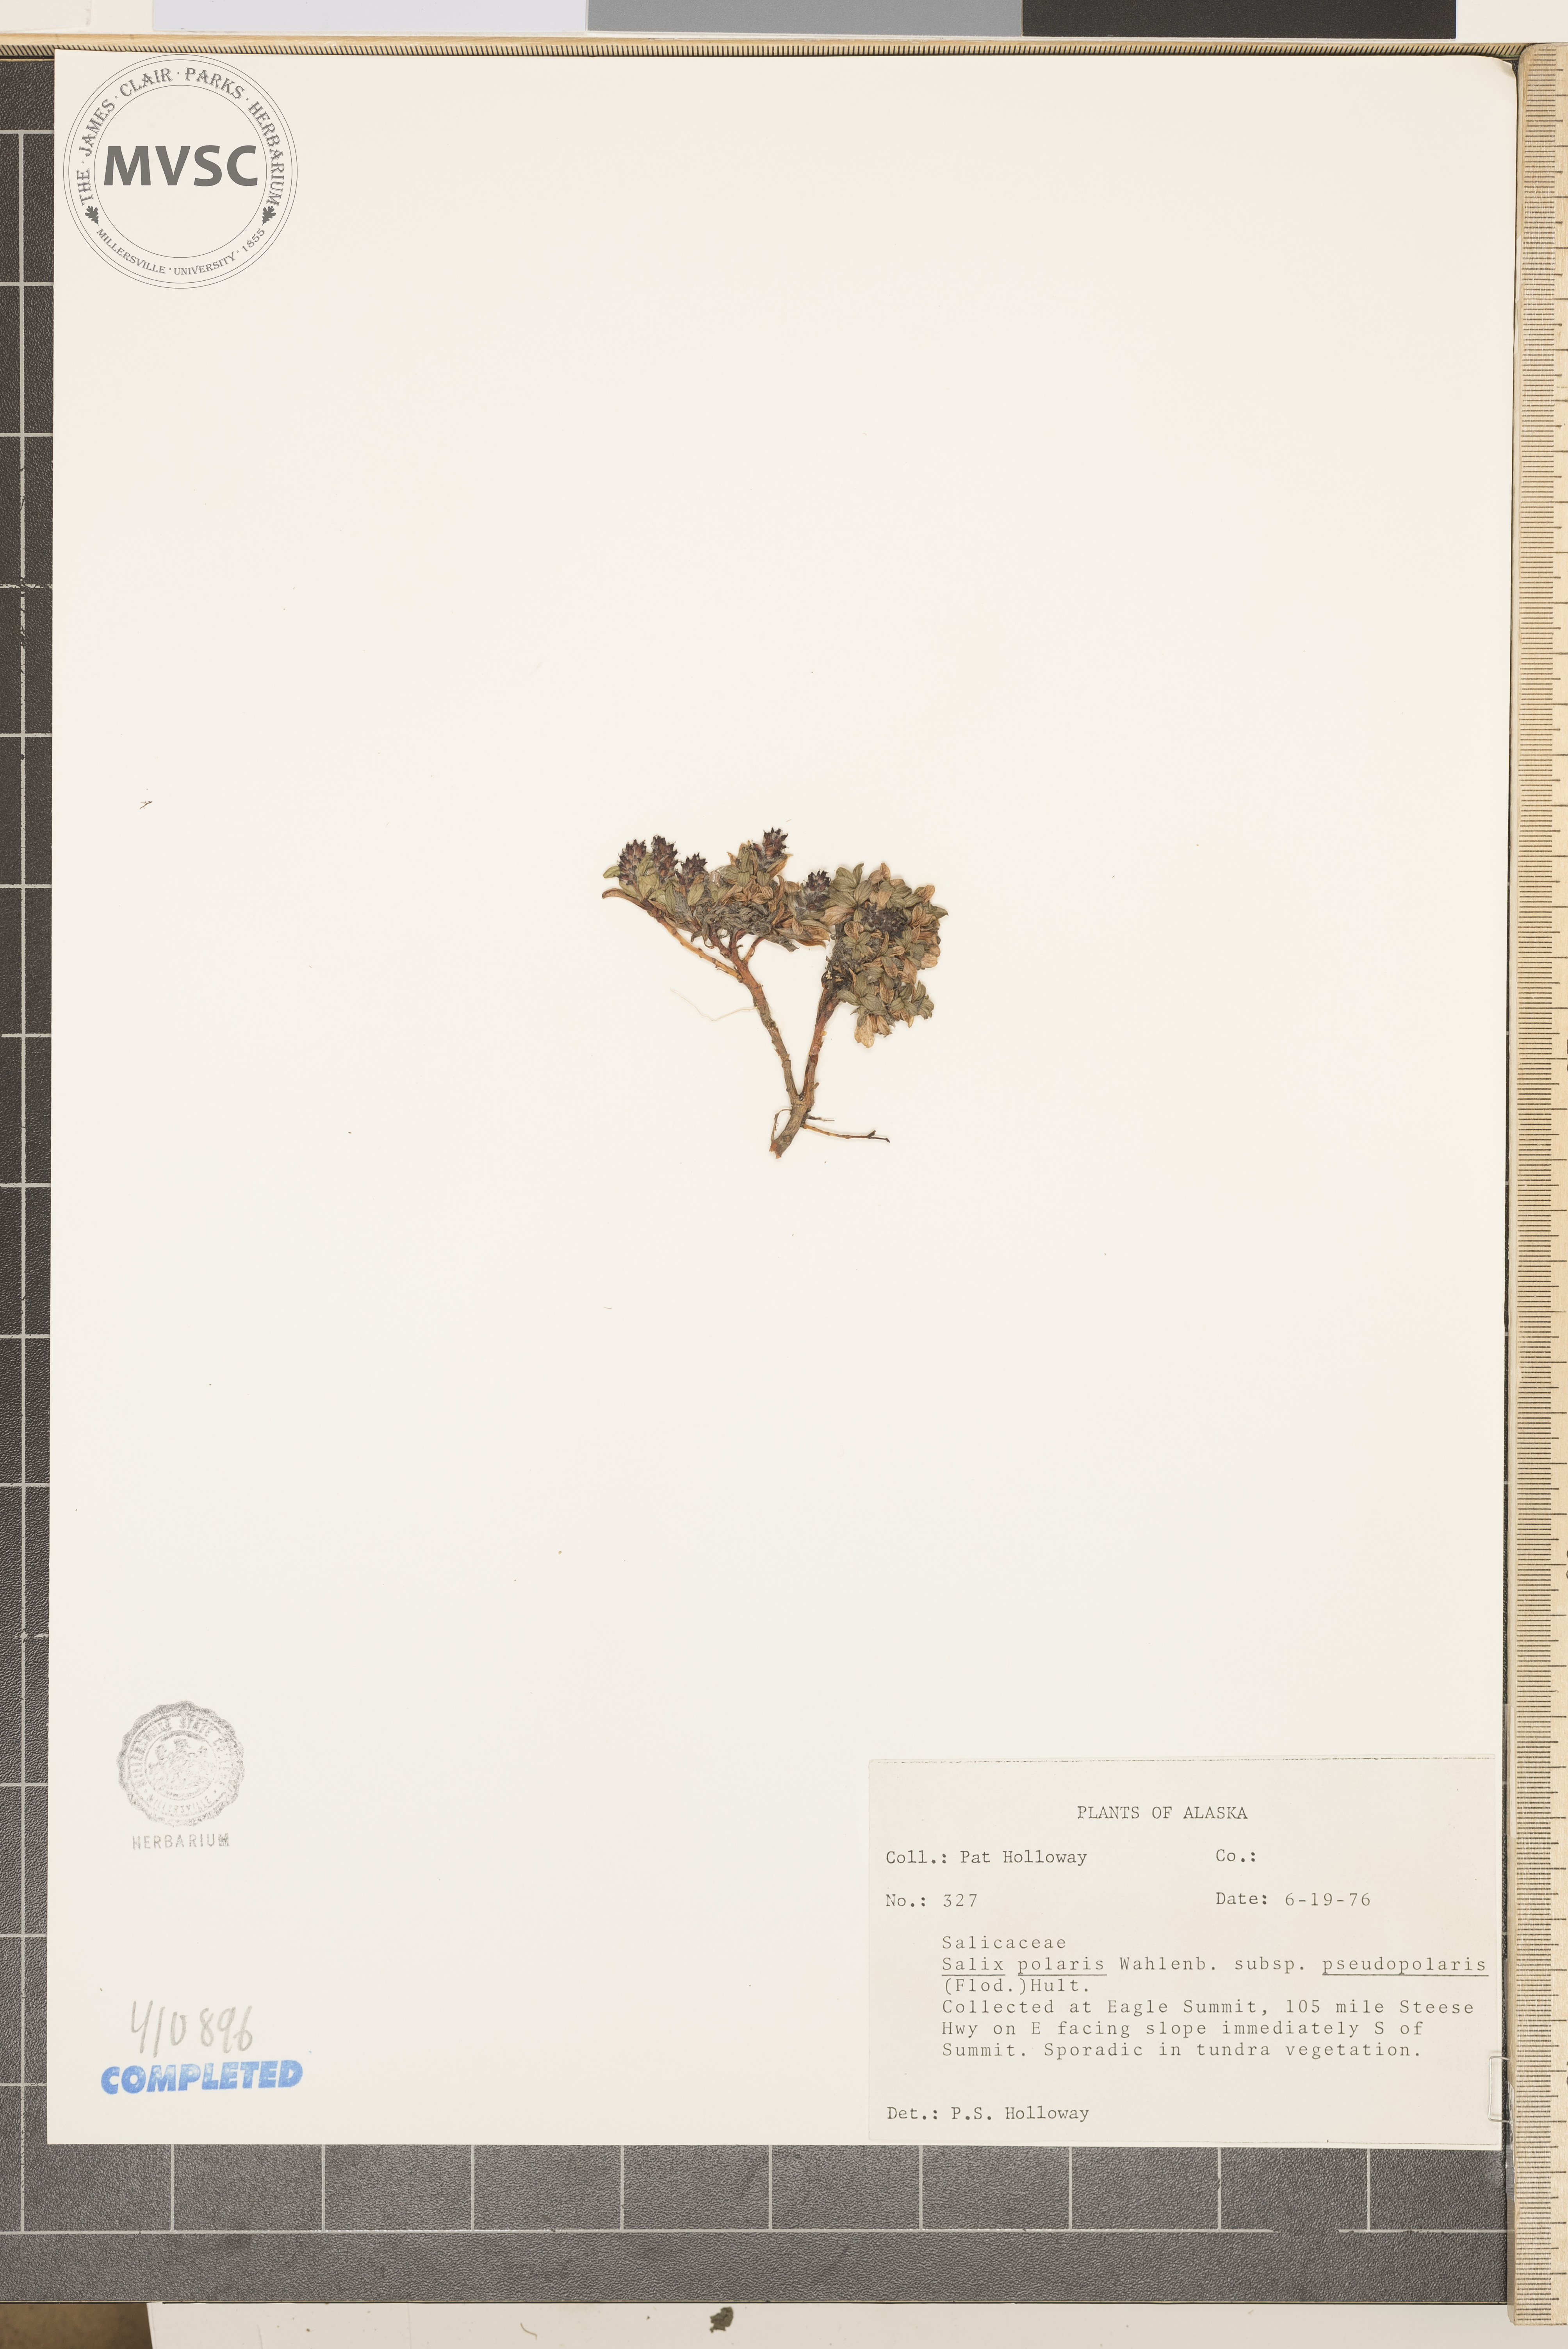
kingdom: Plantae
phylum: Tracheophyta
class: Magnoliopsida
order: Malpighiales
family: Salicaceae
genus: Salix
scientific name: Salix polaris
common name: Polar willow
